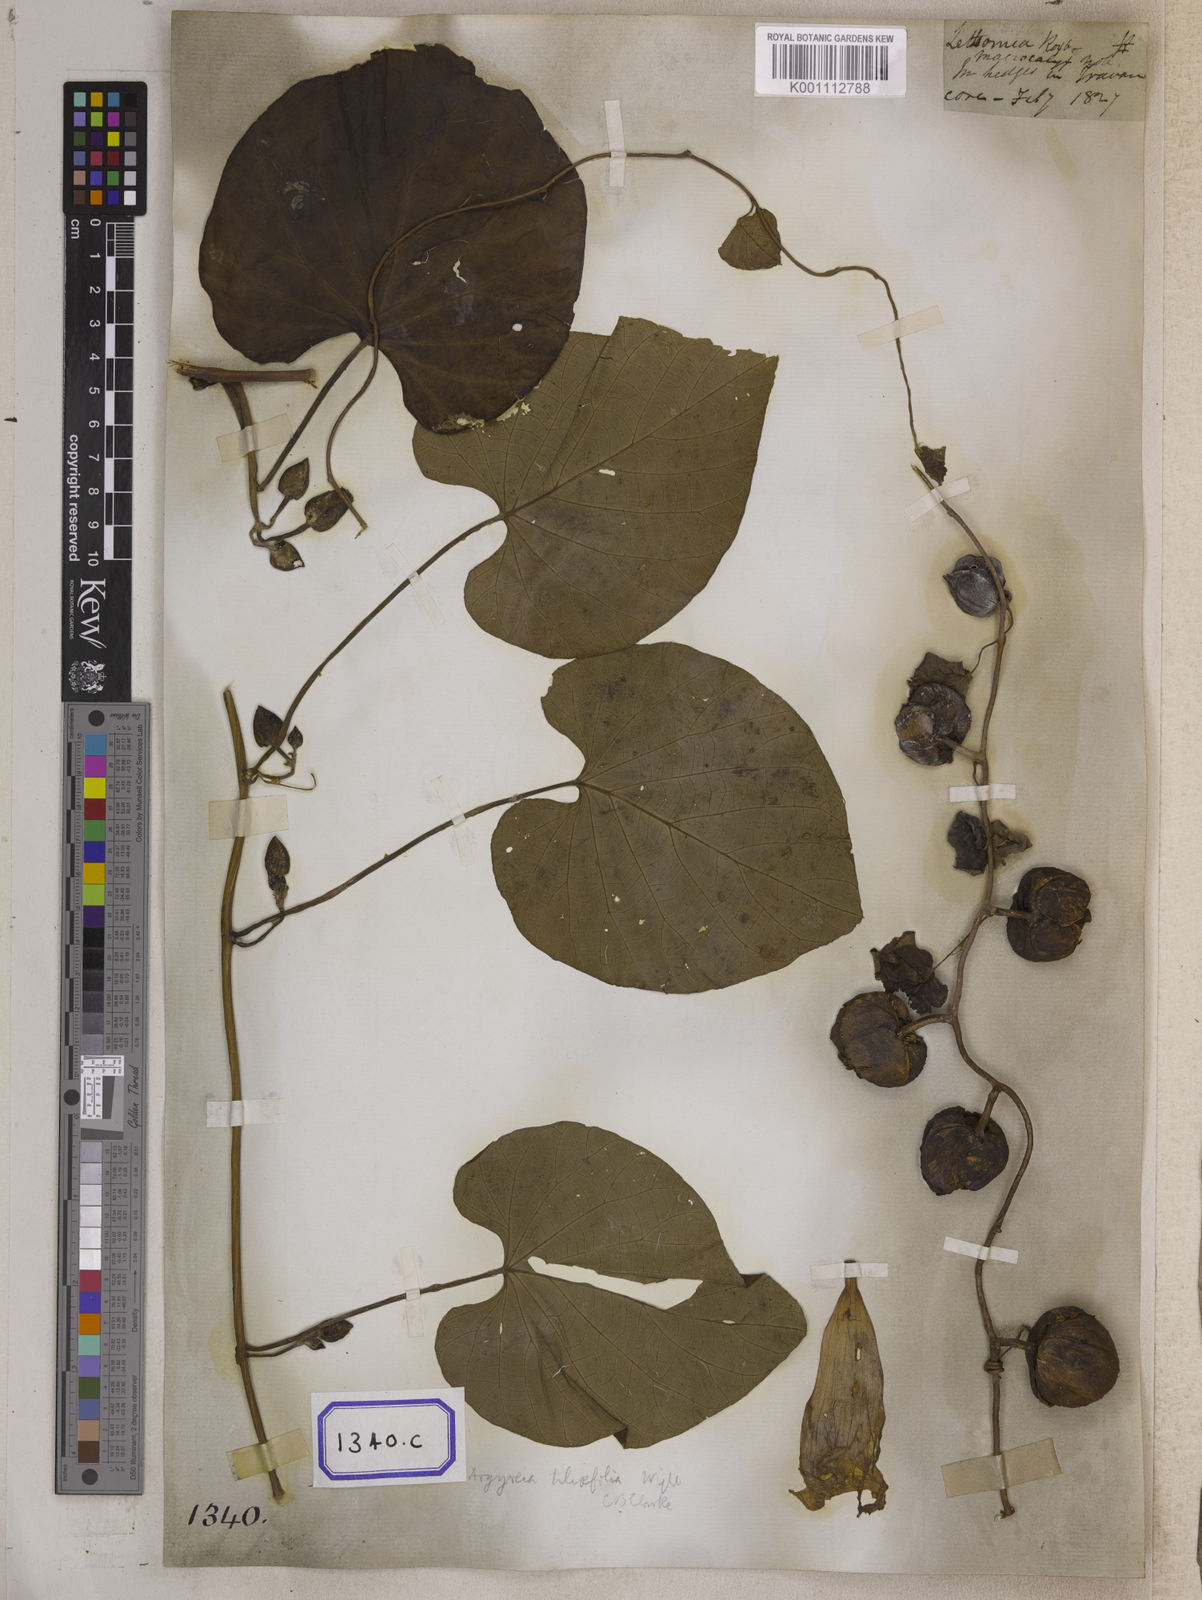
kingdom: Plantae
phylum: Tracheophyta
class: Magnoliopsida
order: Solanales
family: Convolvulaceae
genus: Stictocardia
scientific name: Stictocardia tiliifolia
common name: Spottedheart
